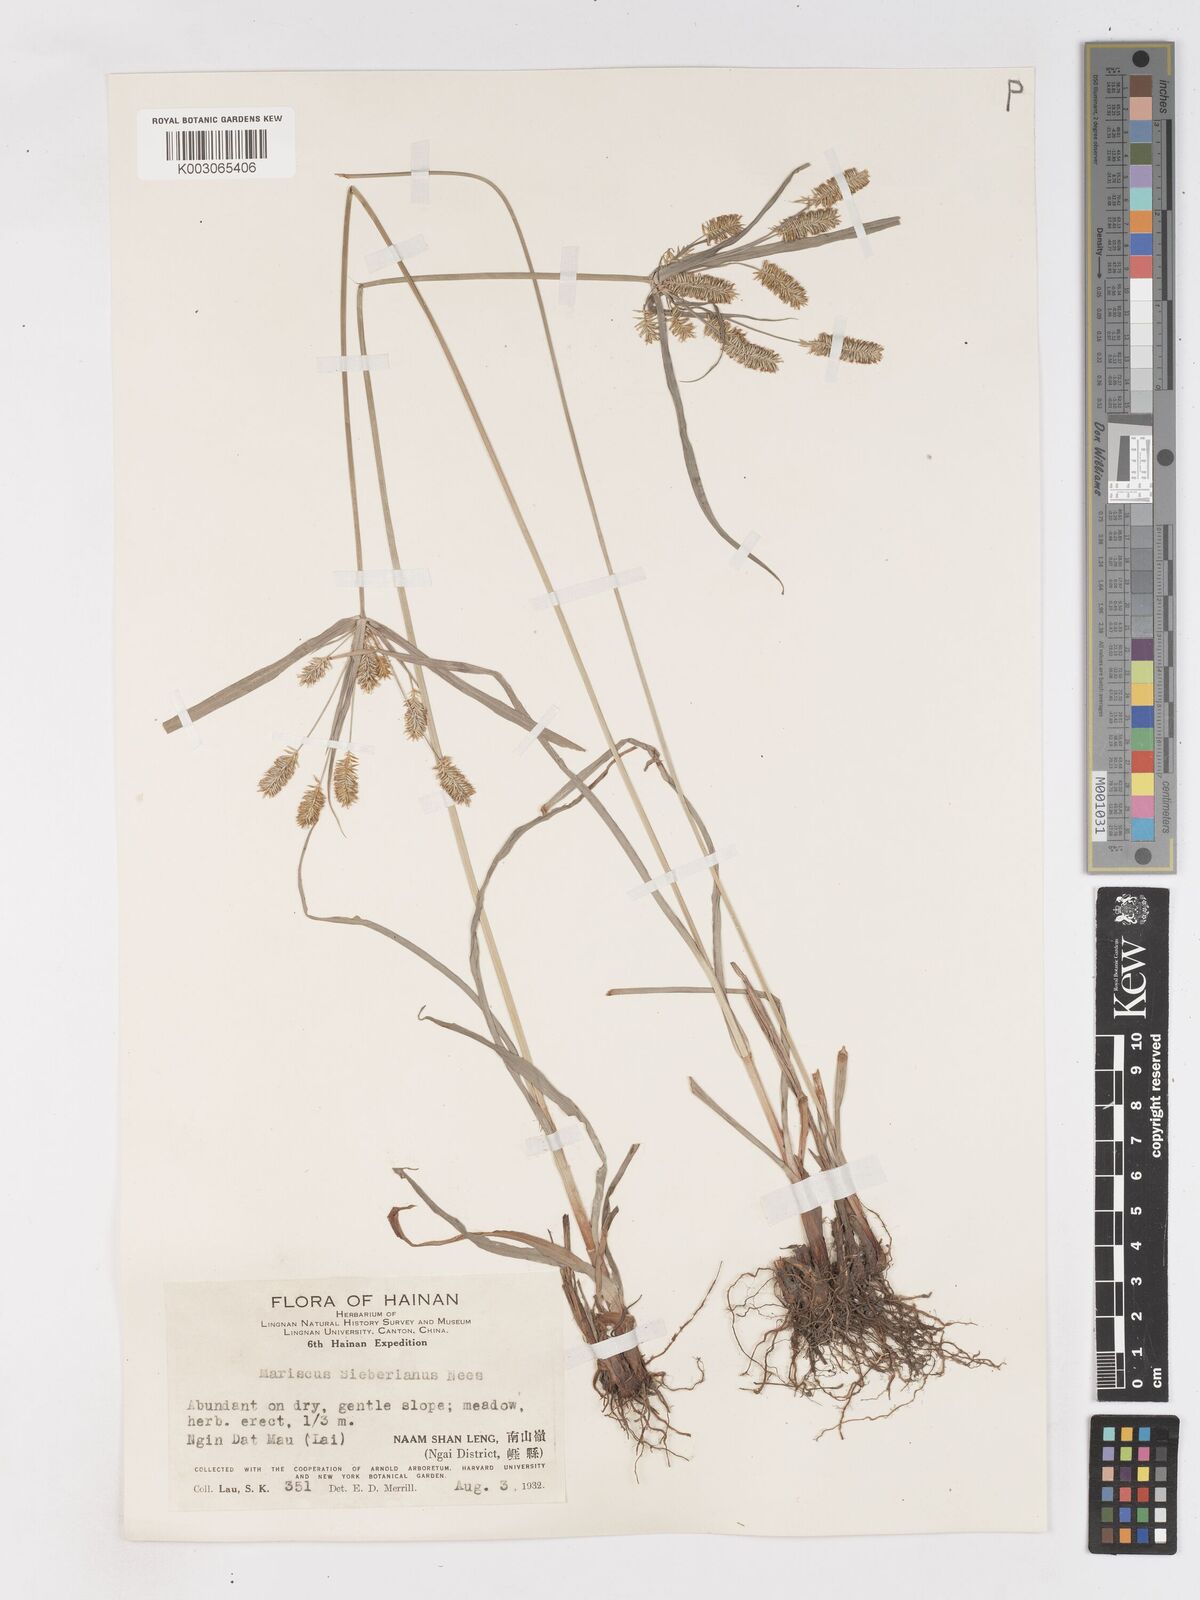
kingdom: Plantae
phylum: Tracheophyta
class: Liliopsida
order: Poales
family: Cyperaceae
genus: Cyperus
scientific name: Cyperus cyperoides
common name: Pacific island flat sedge
